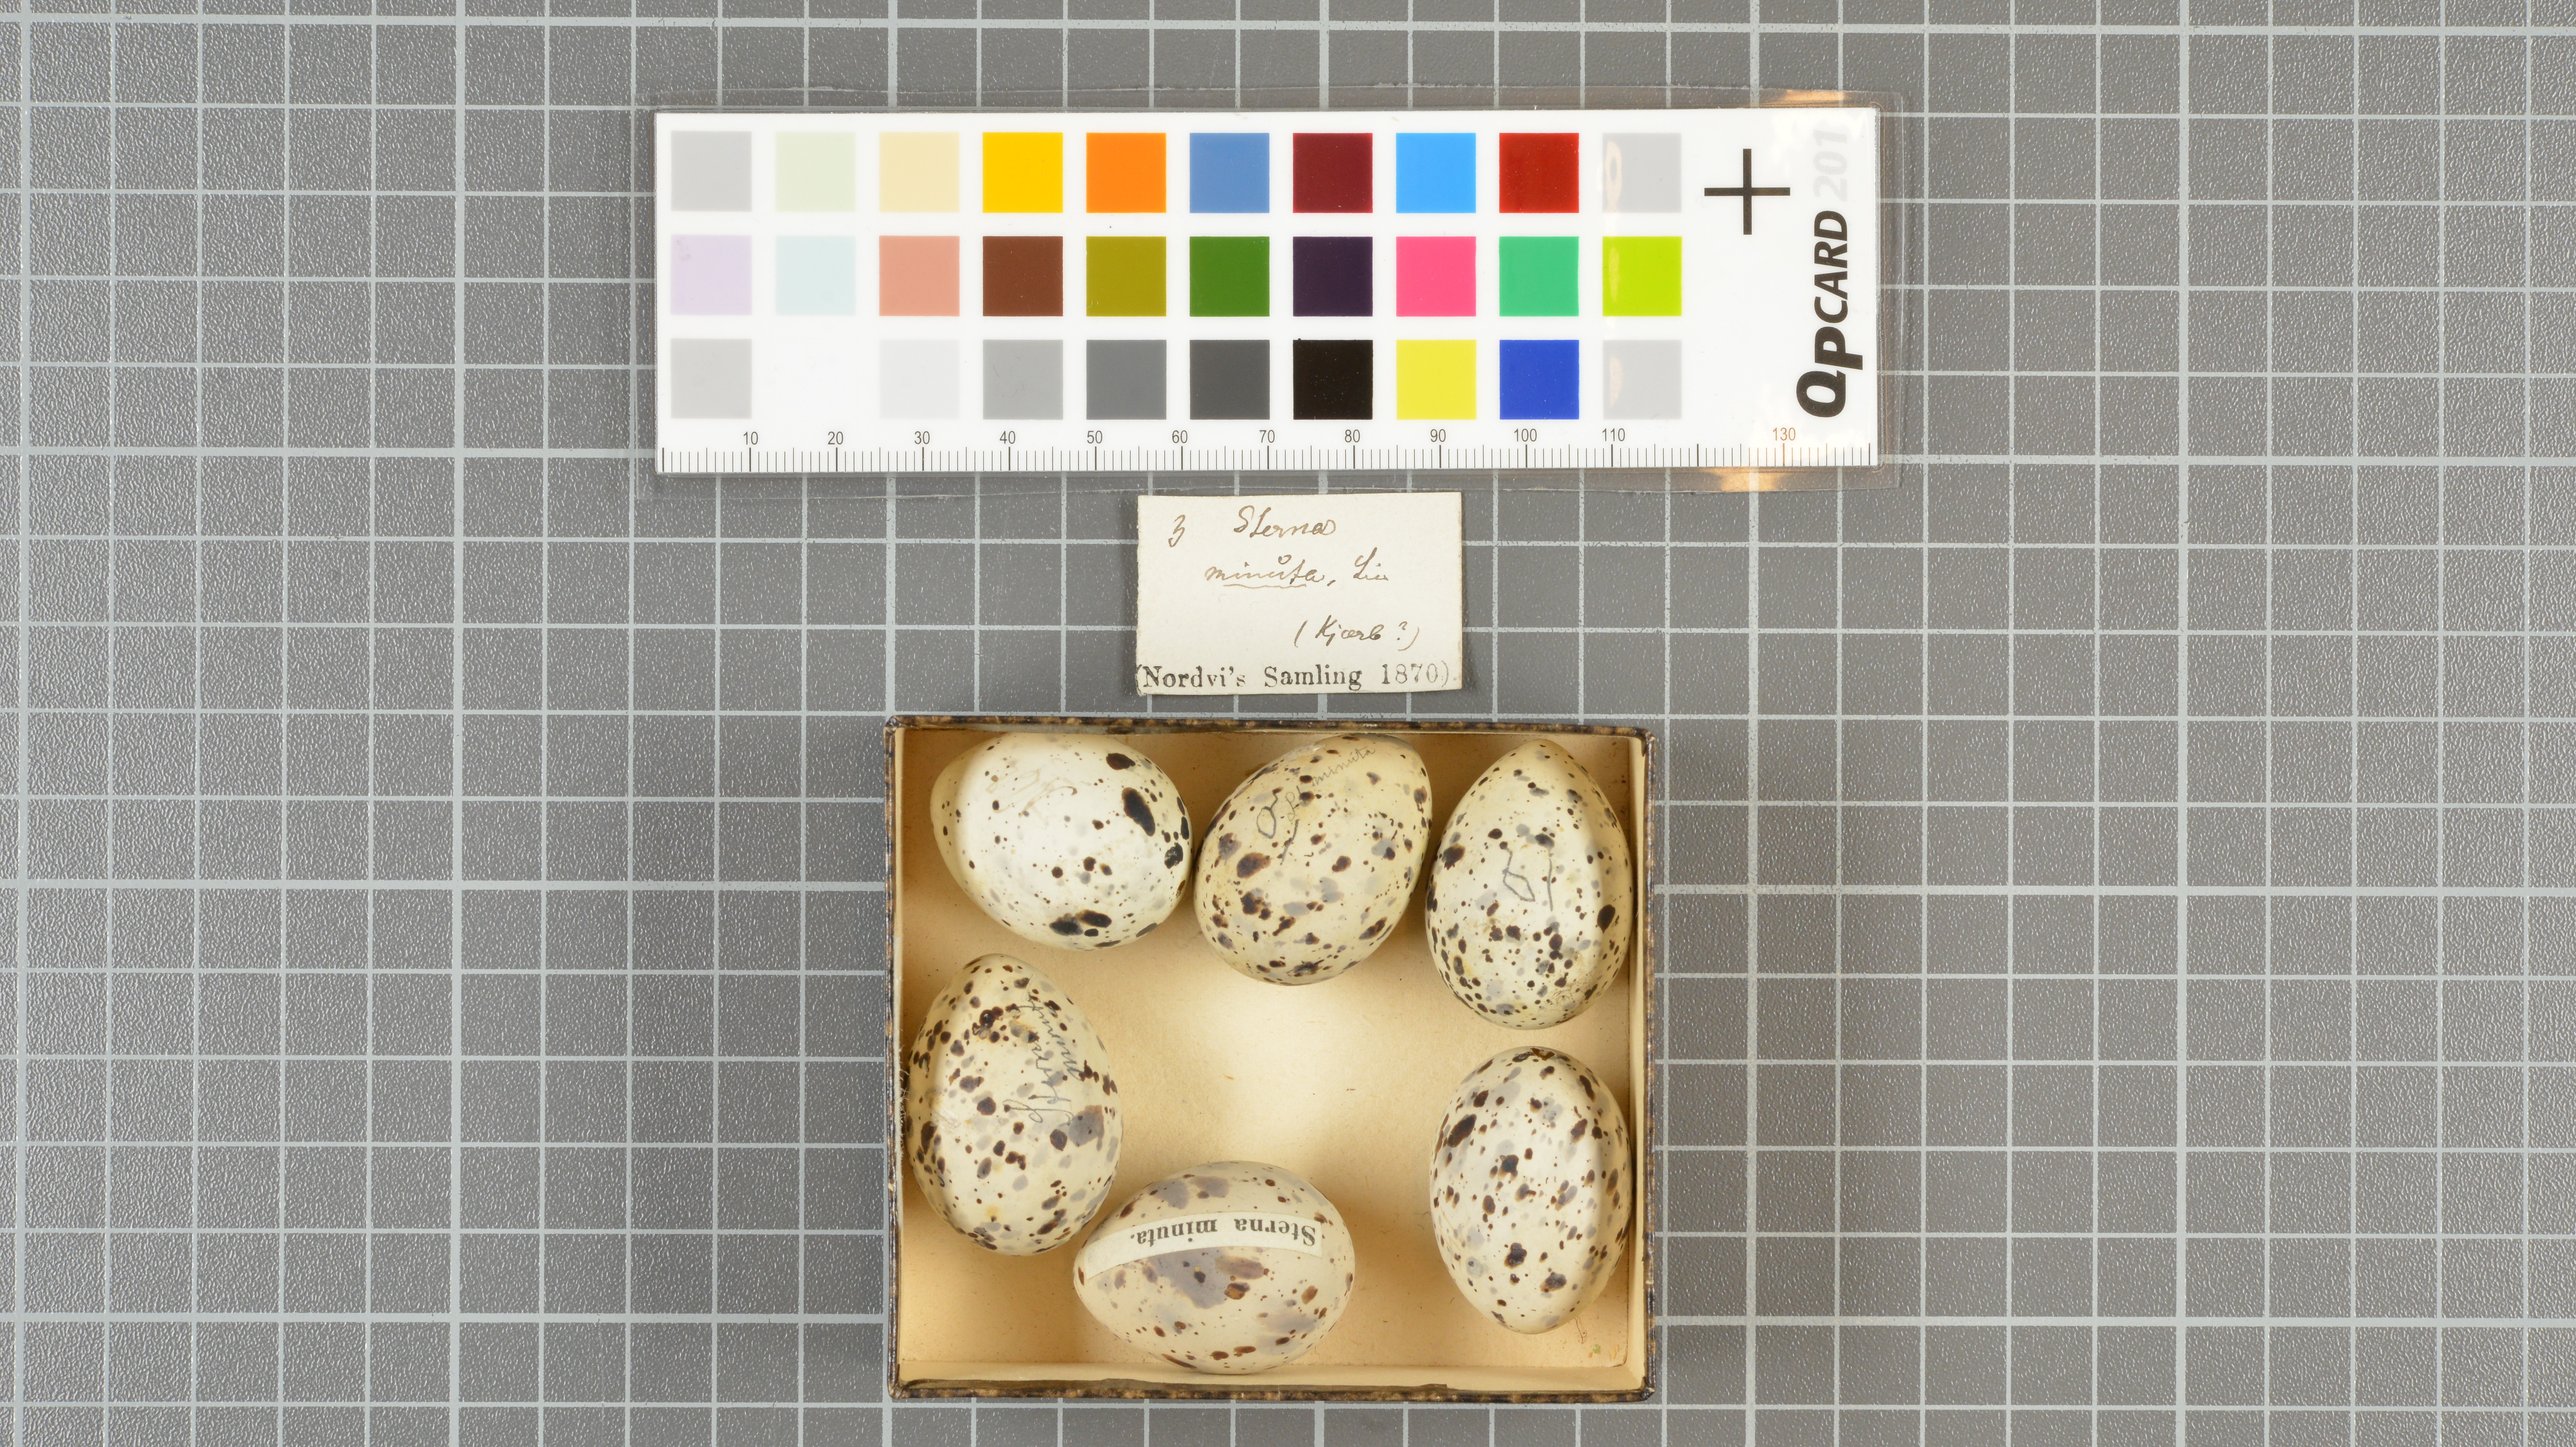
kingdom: Animalia
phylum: Chordata
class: Aves
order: Charadriiformes
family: Laridae
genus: Sternula
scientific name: Sternula antillarum
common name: Least tern
